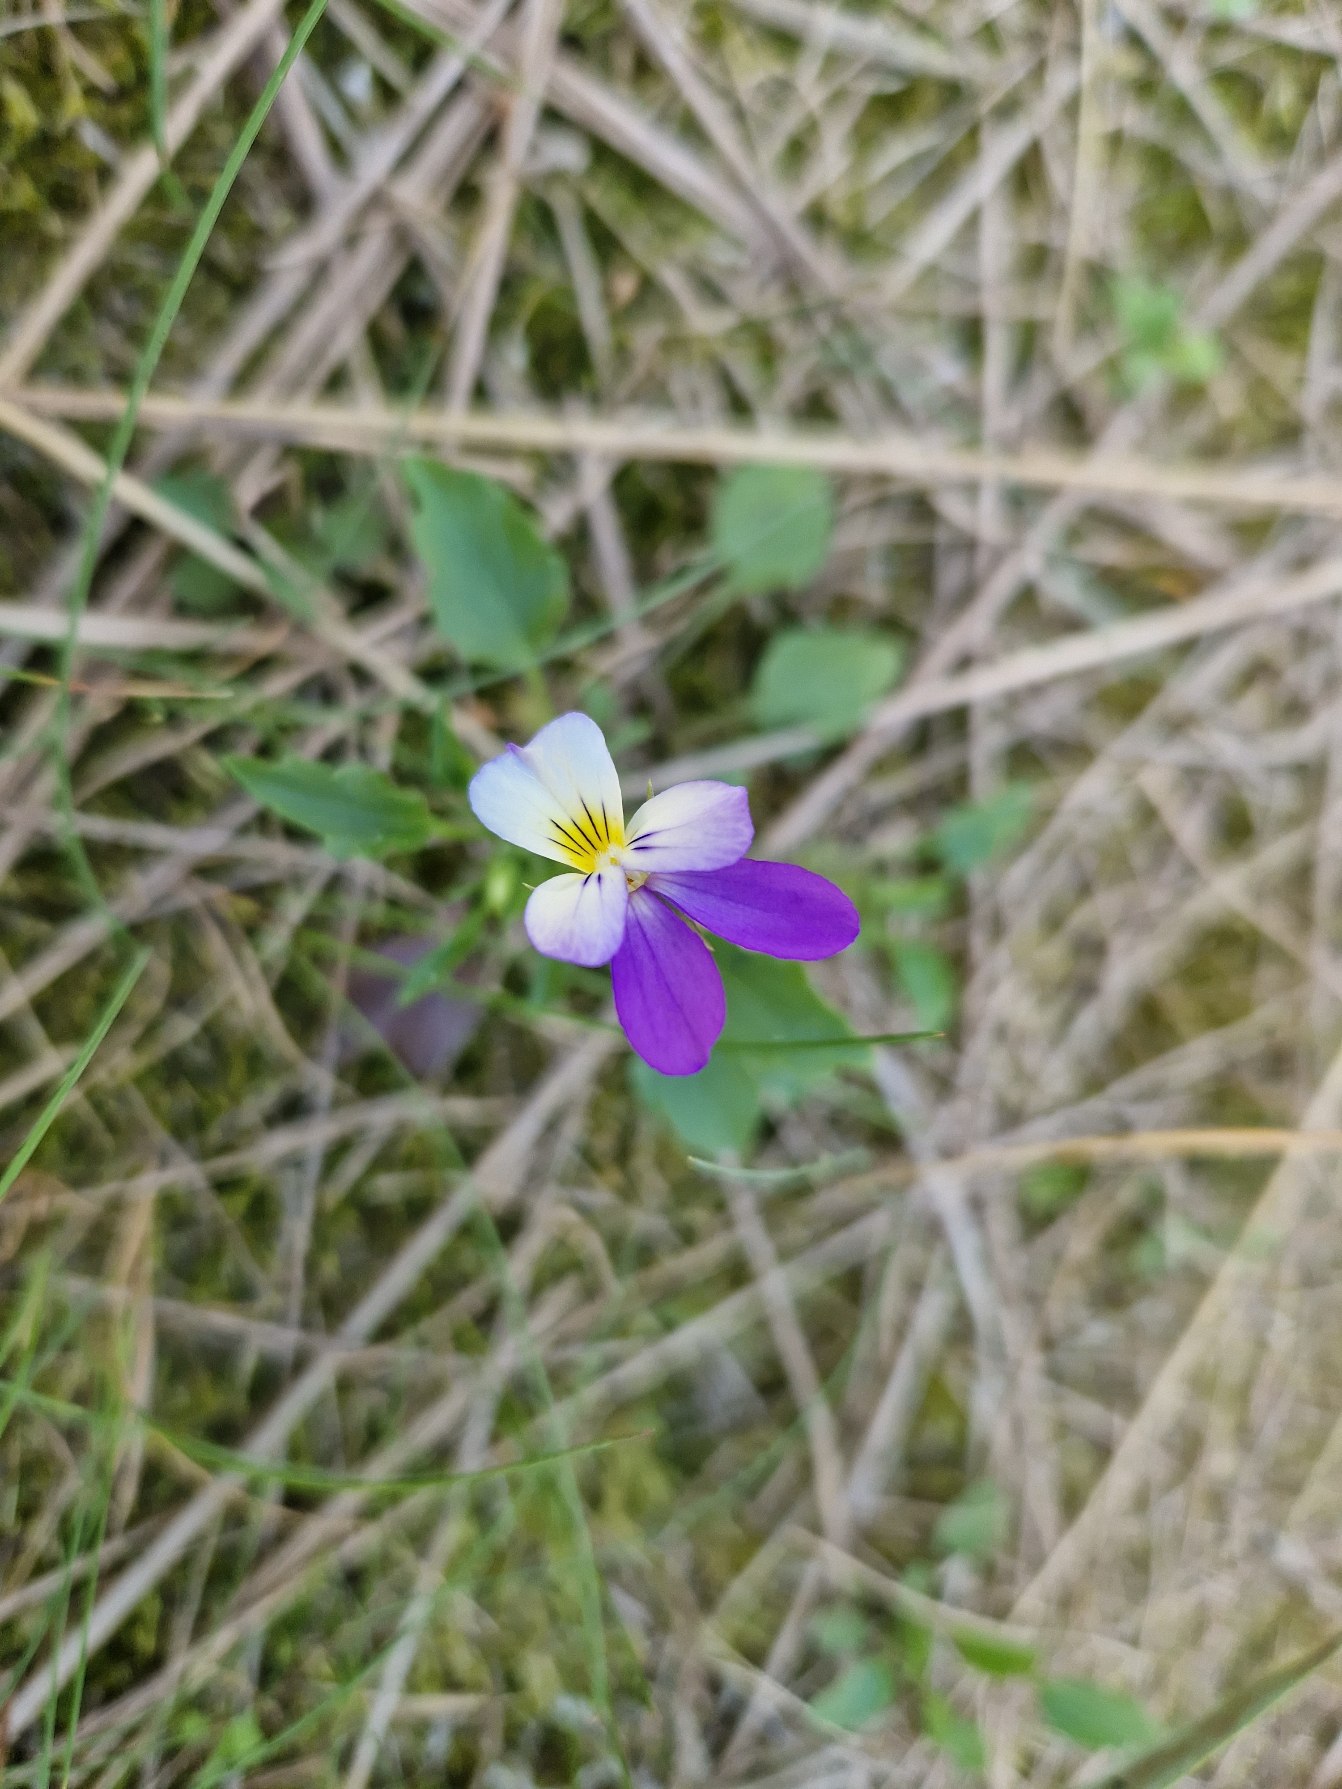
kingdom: Plantae
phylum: Tracheophyta
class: Magnoliopsida
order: Malpighiales
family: Violaceae
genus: Viola
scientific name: Viola tricolor
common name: Stedmoderblomst
